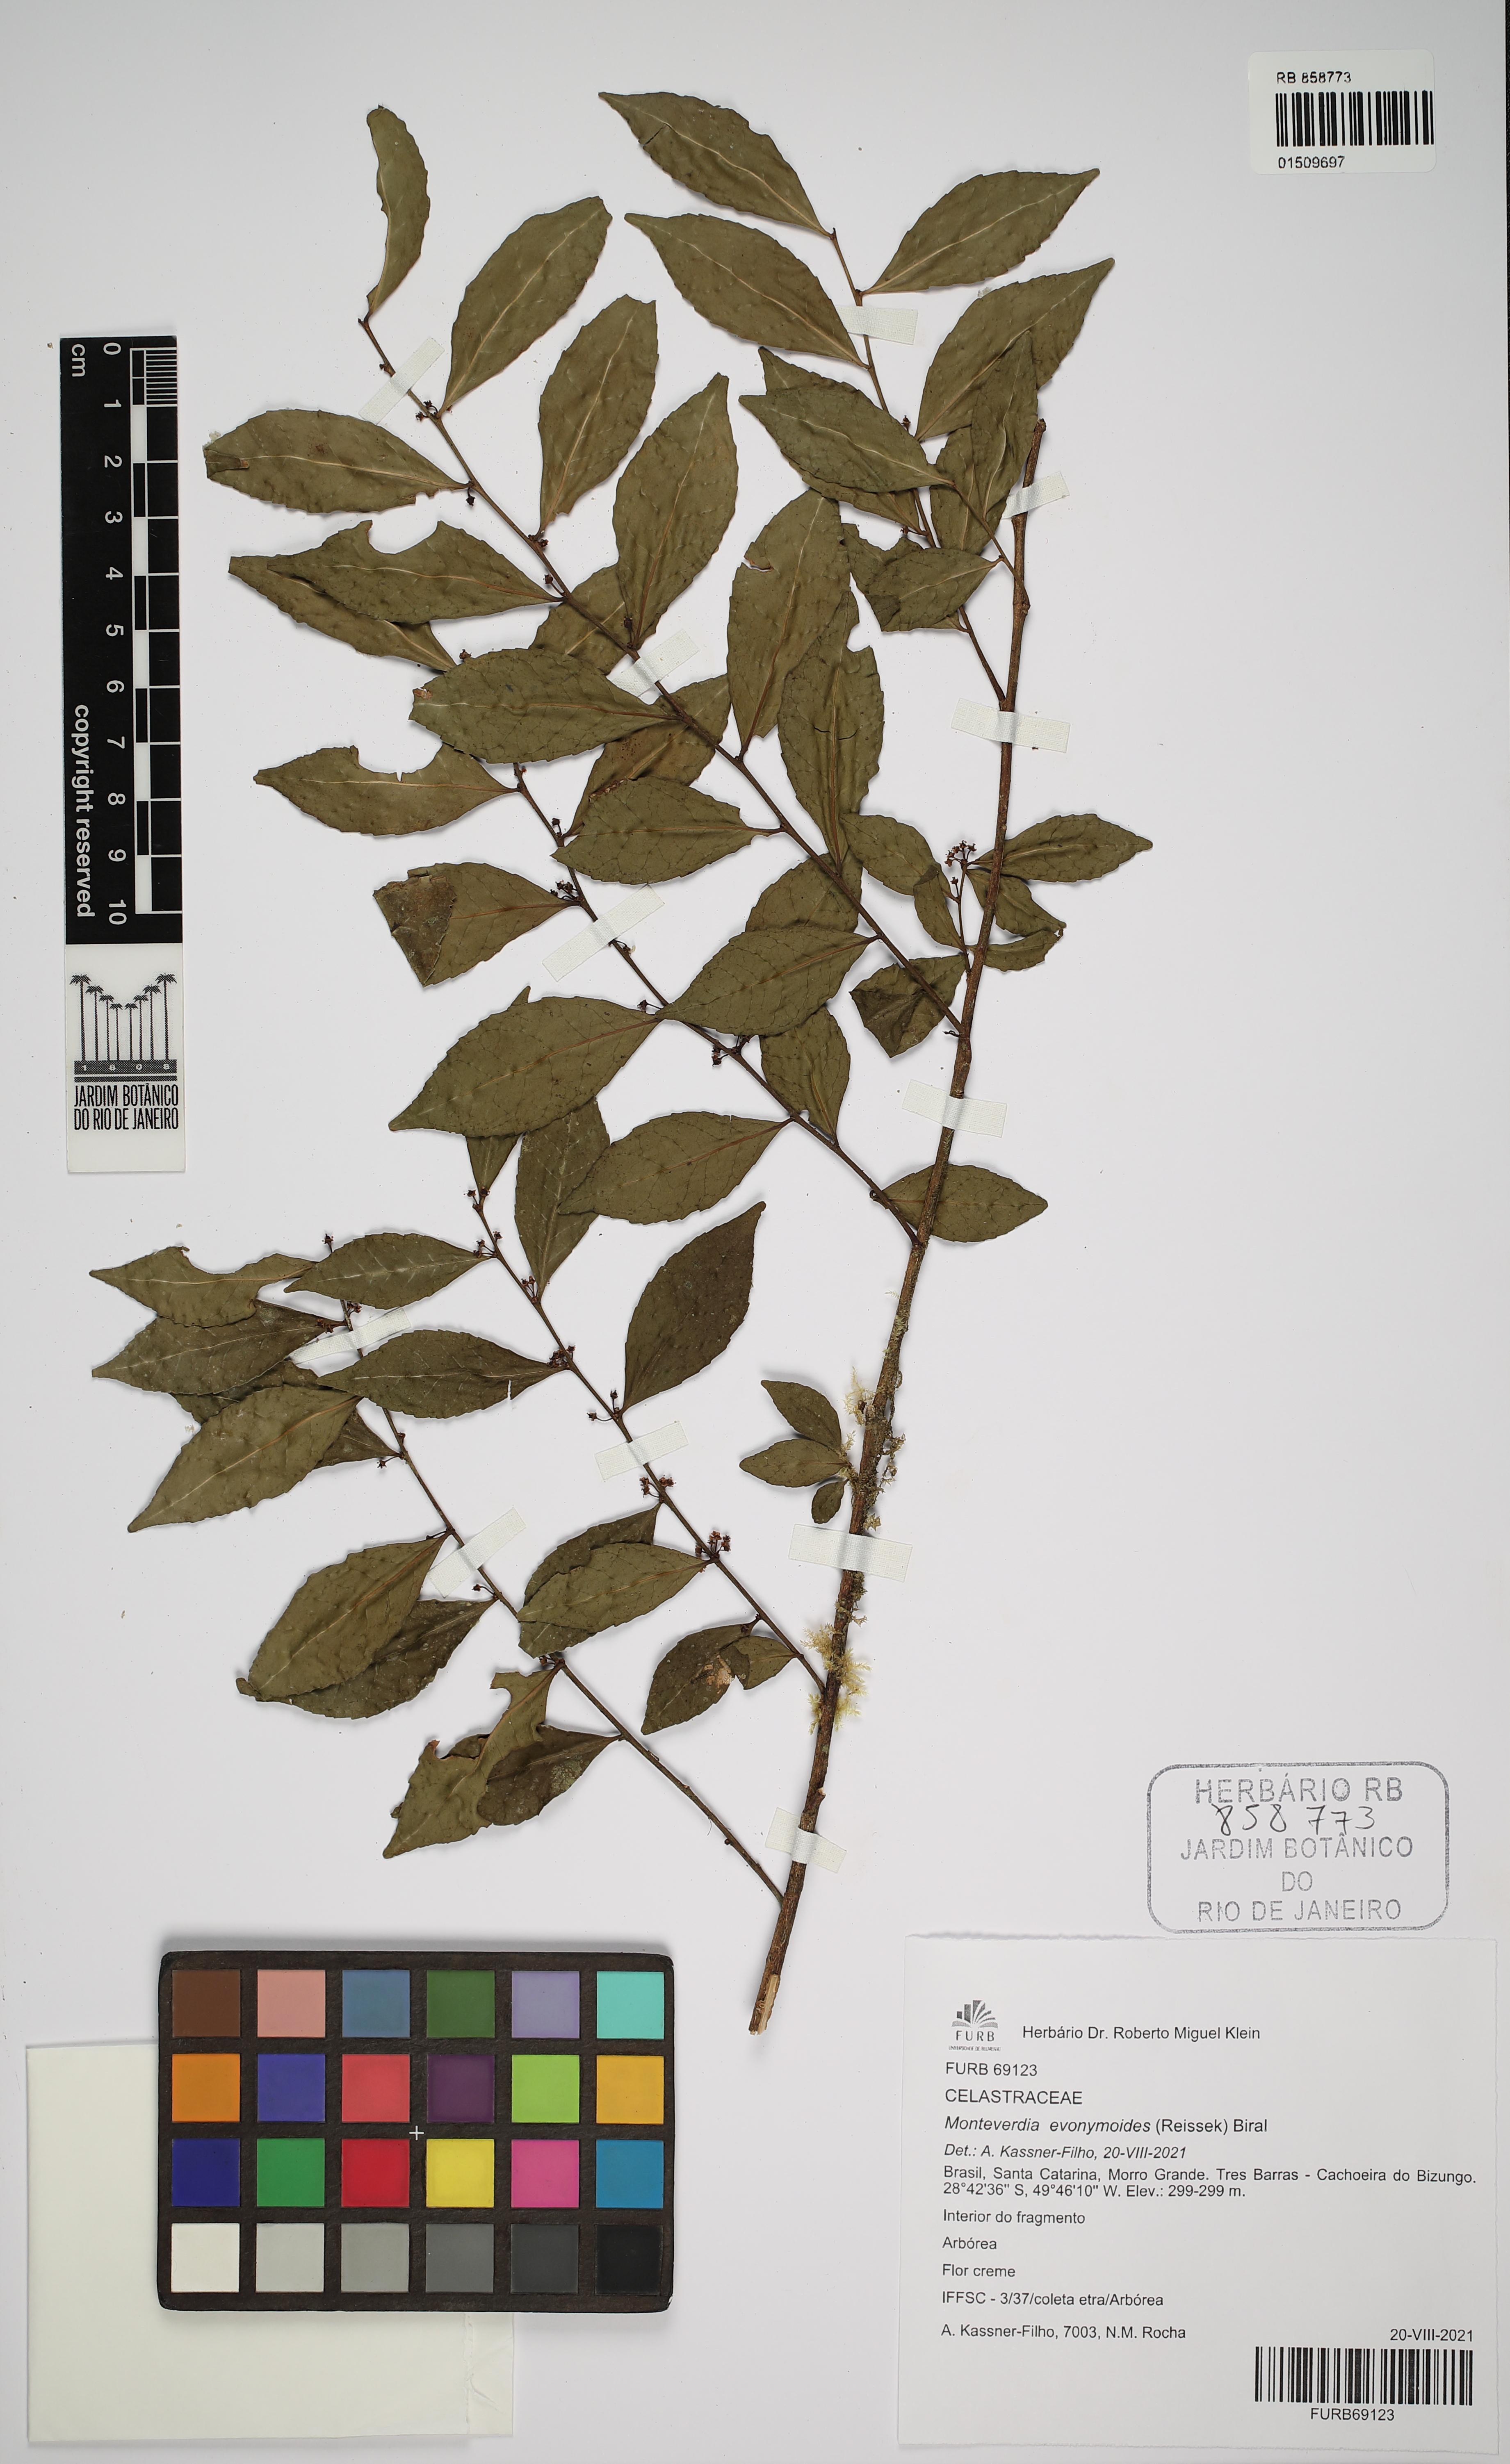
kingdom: Plantae
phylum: Tracheophyta
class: Magnoliopsida
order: Celastrales
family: Celastraceae
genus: Monteverdia
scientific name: Monteverdia evonymoides
